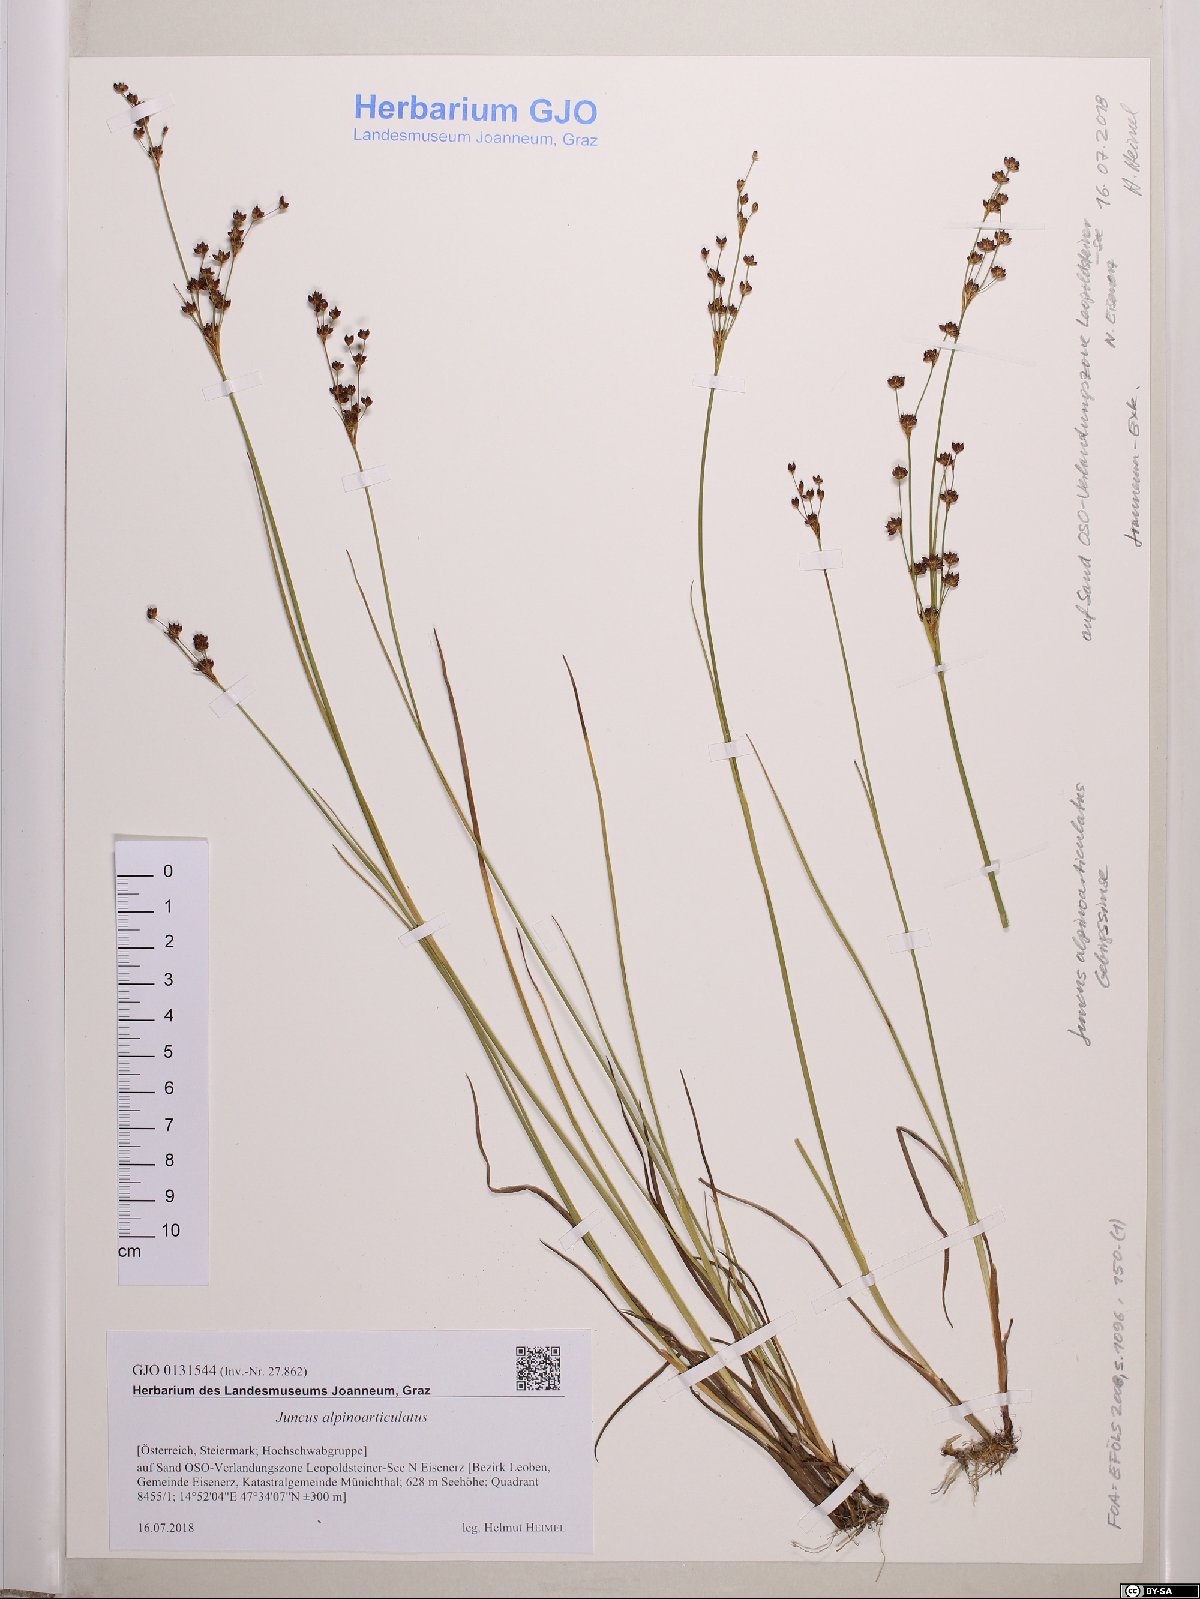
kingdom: Plantae
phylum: Tracheophyta
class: Liliopsida
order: Poales
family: Juncaceae
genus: Juncus
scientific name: Juncus alpinoarticulatus
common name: Alpine rush
